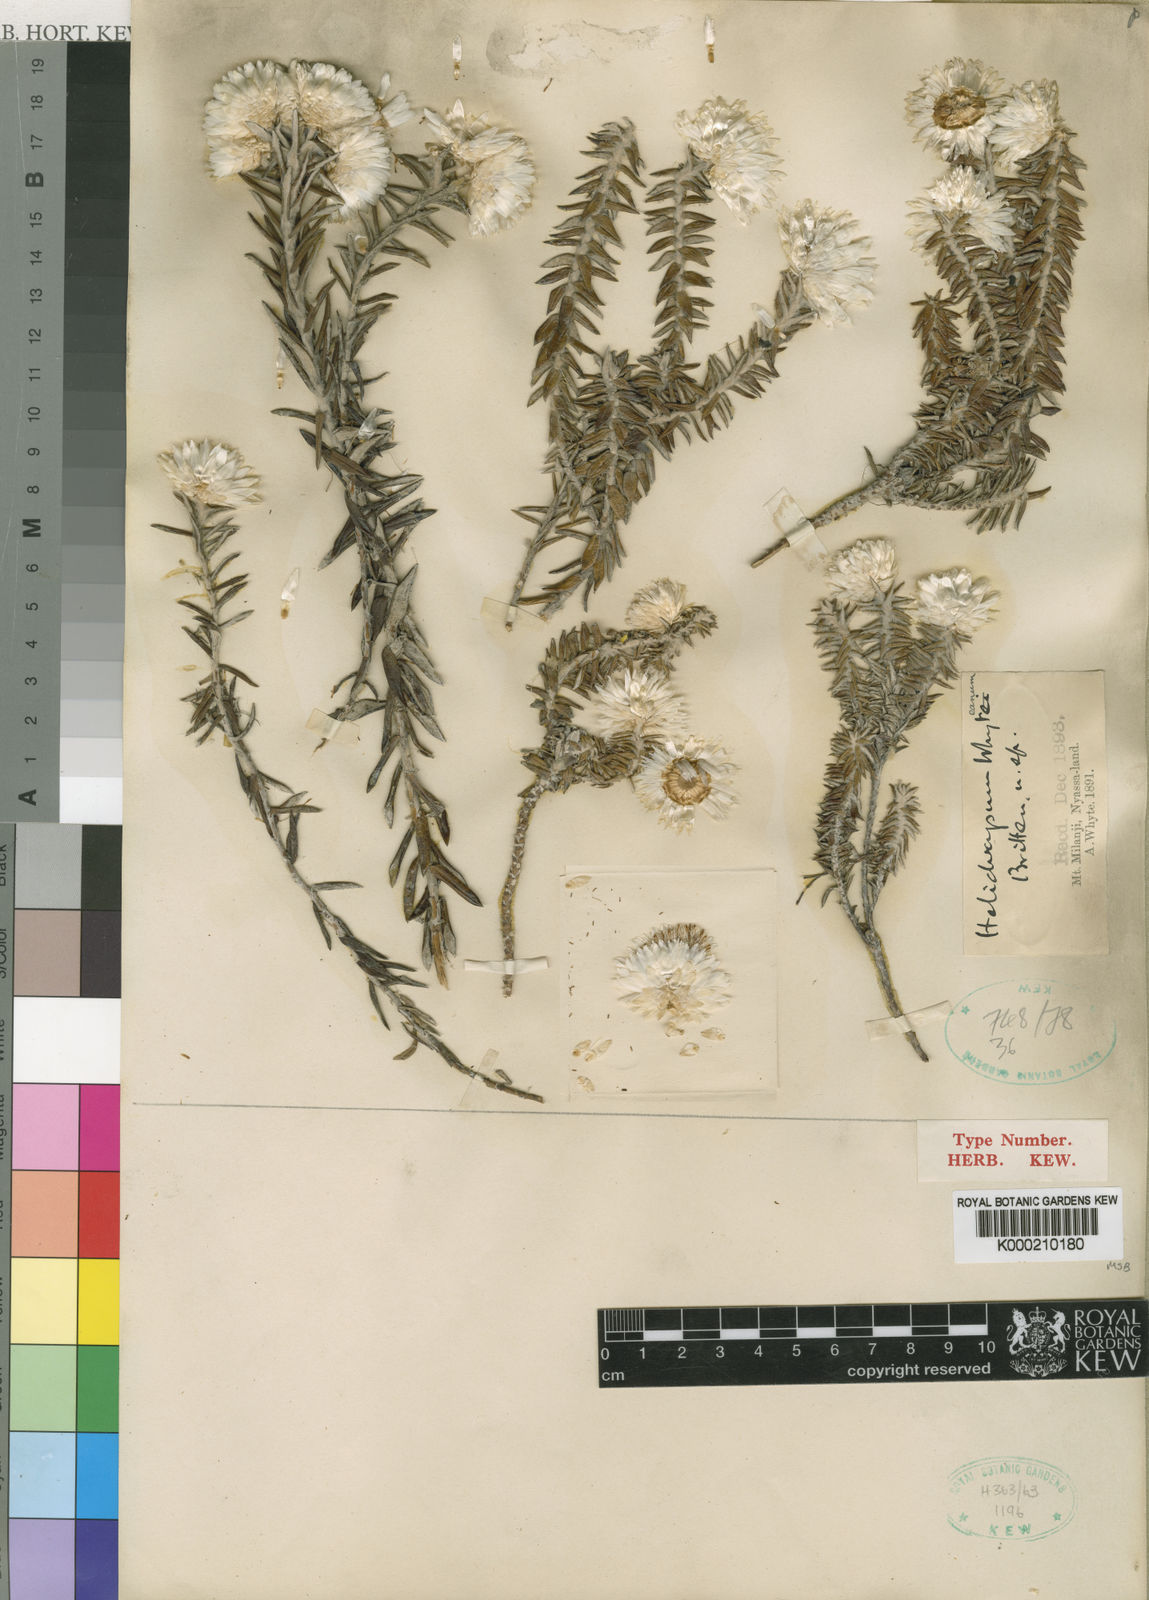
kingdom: Plantae
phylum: Tracheophyta
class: Magnoliopsida
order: Asterales
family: Asteraceae
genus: Helichrysum
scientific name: Helichrysum whyteanum
